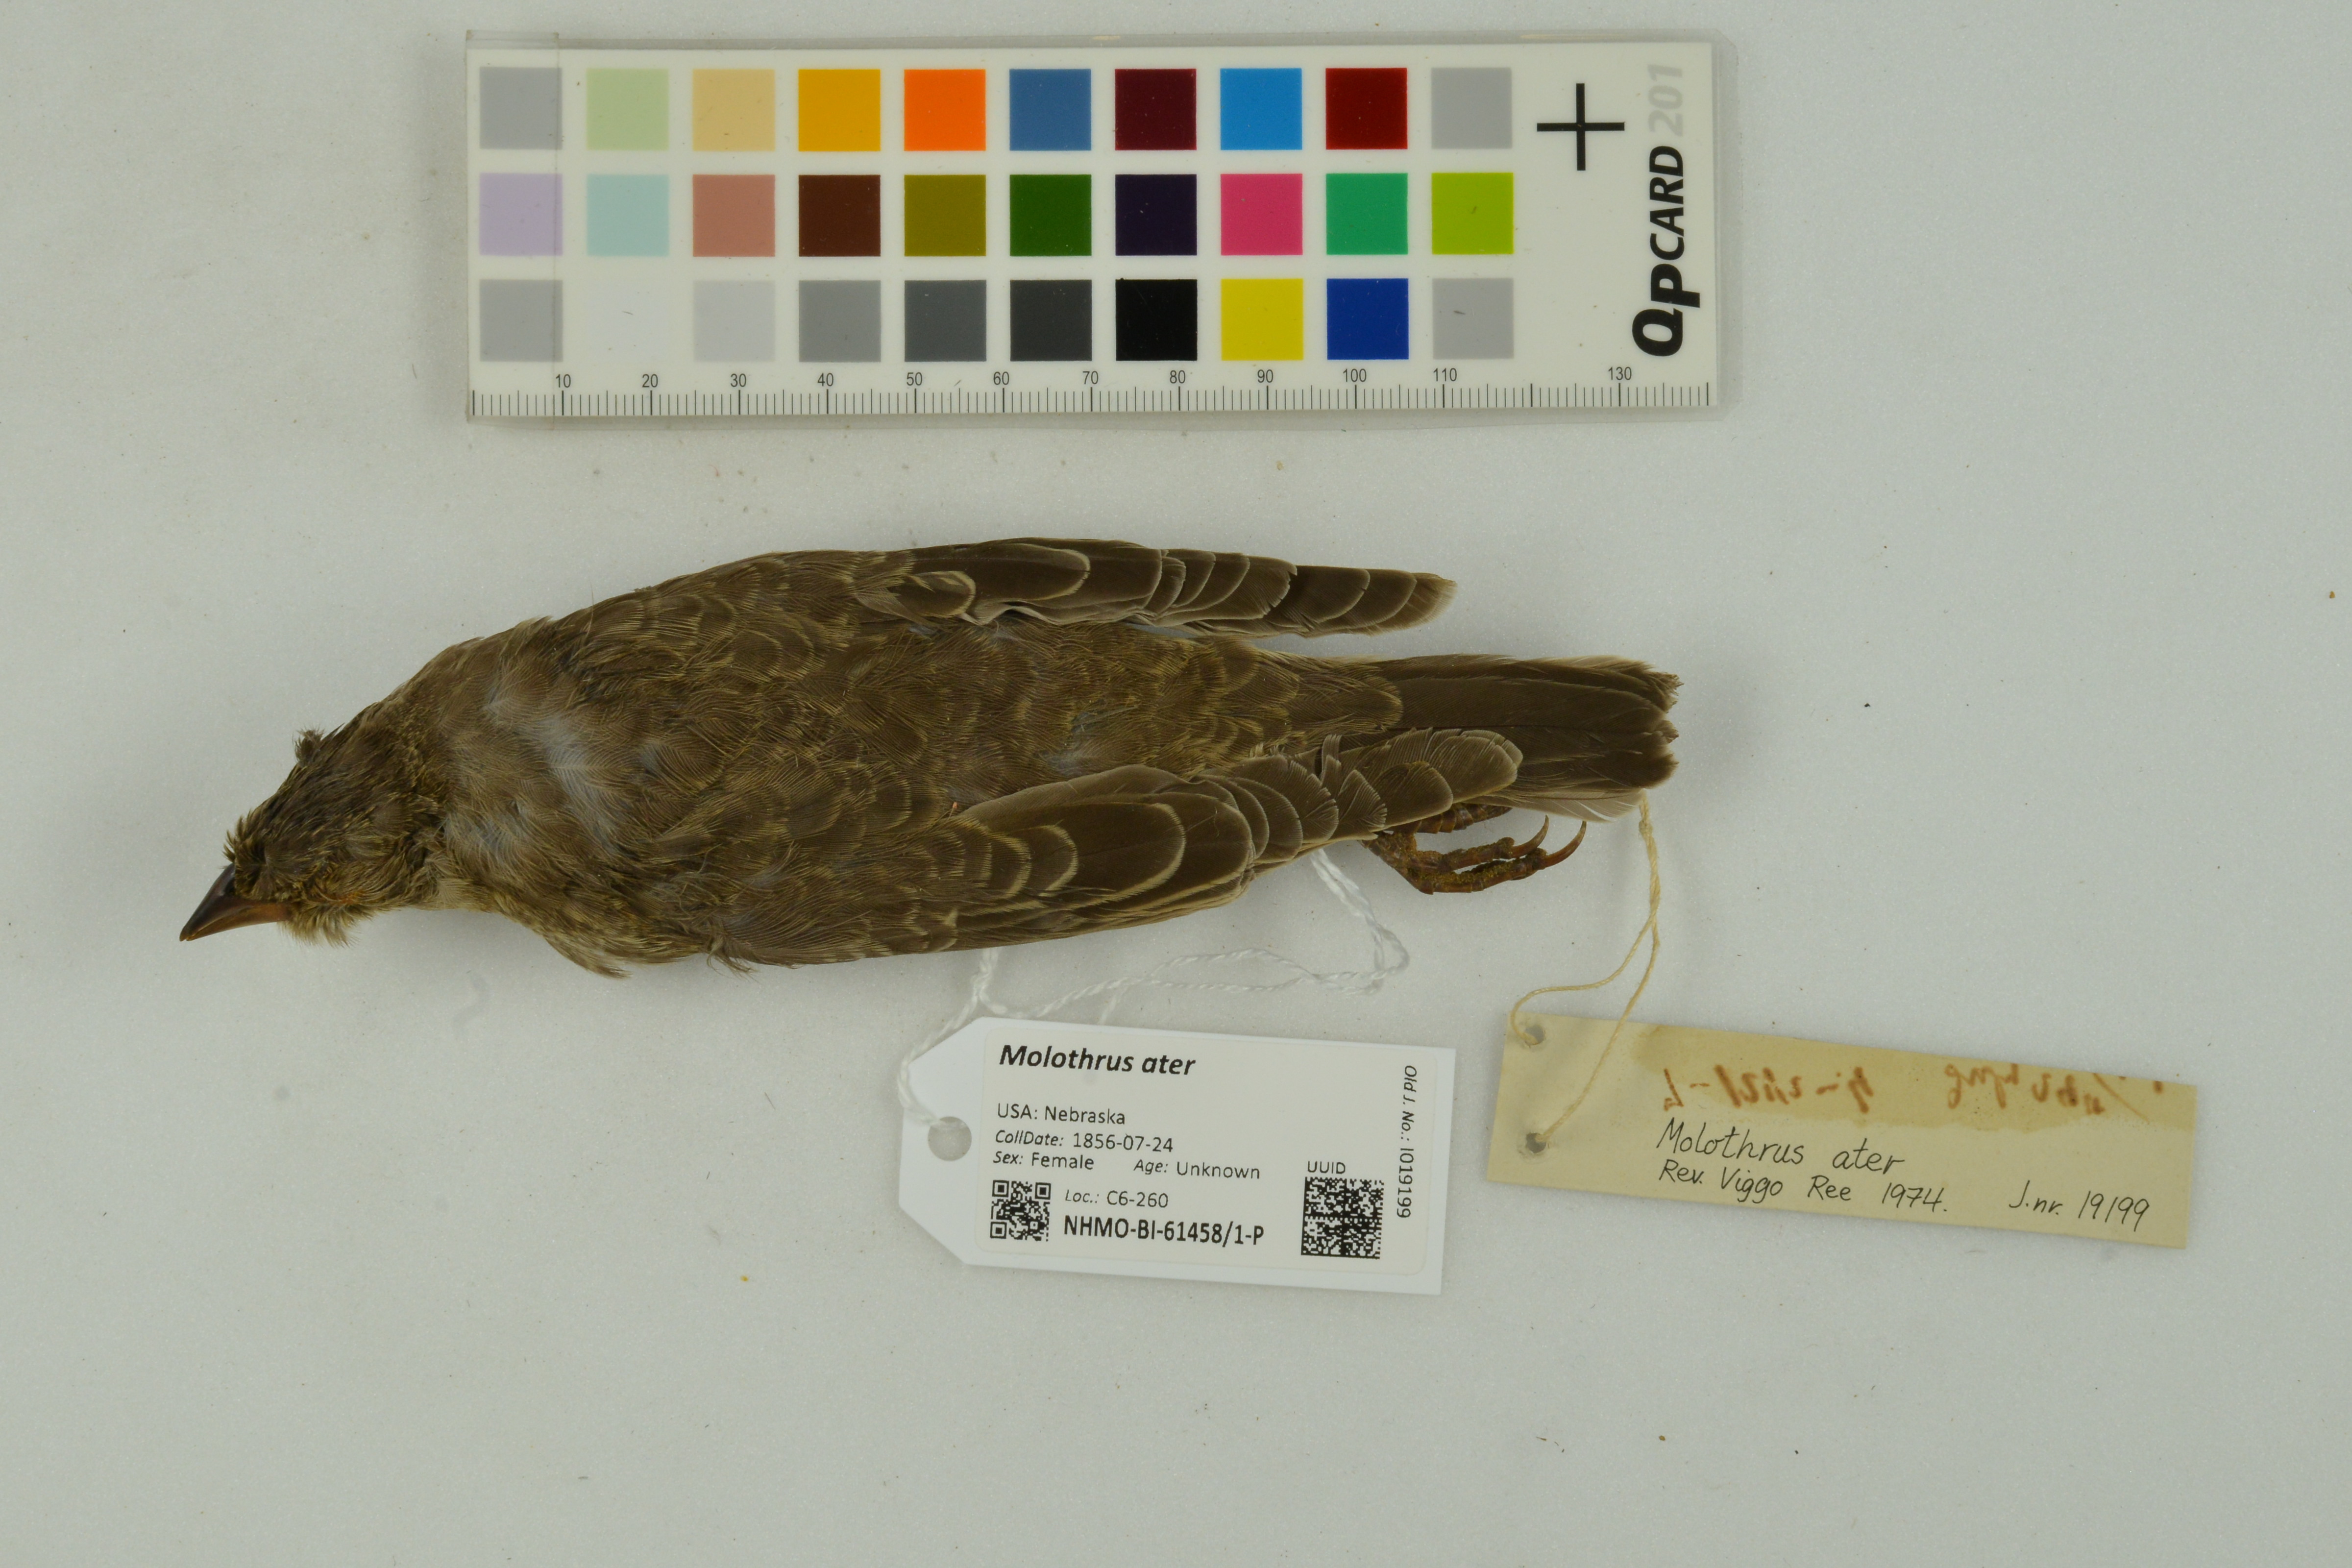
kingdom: Animalia
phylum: Chordata
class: Aves
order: Passeriformes
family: Icteridae
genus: Molothrus
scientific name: Molothrus ater
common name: Brown-headed cowbird
